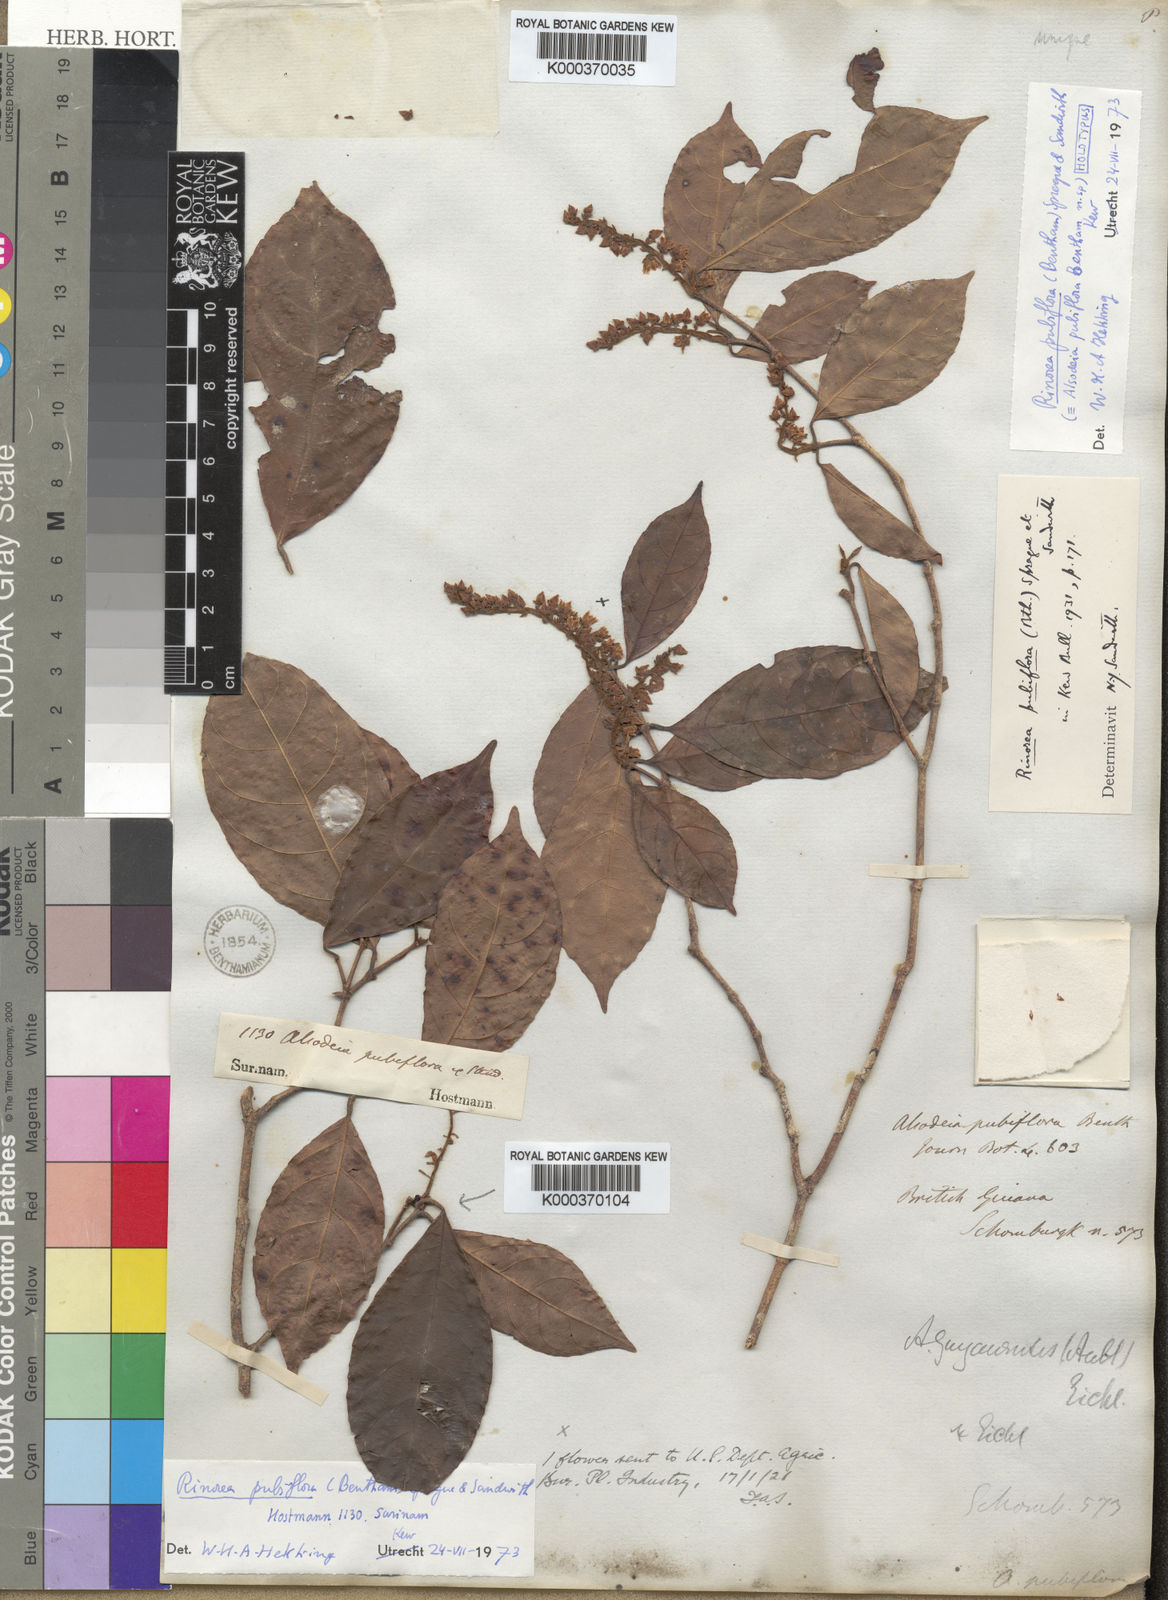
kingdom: Plantae
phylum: Tracheophyta
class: Magnoliopsida
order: Malpighiales
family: Violaceae
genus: Rinorea
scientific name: Rinorea pubiflora
